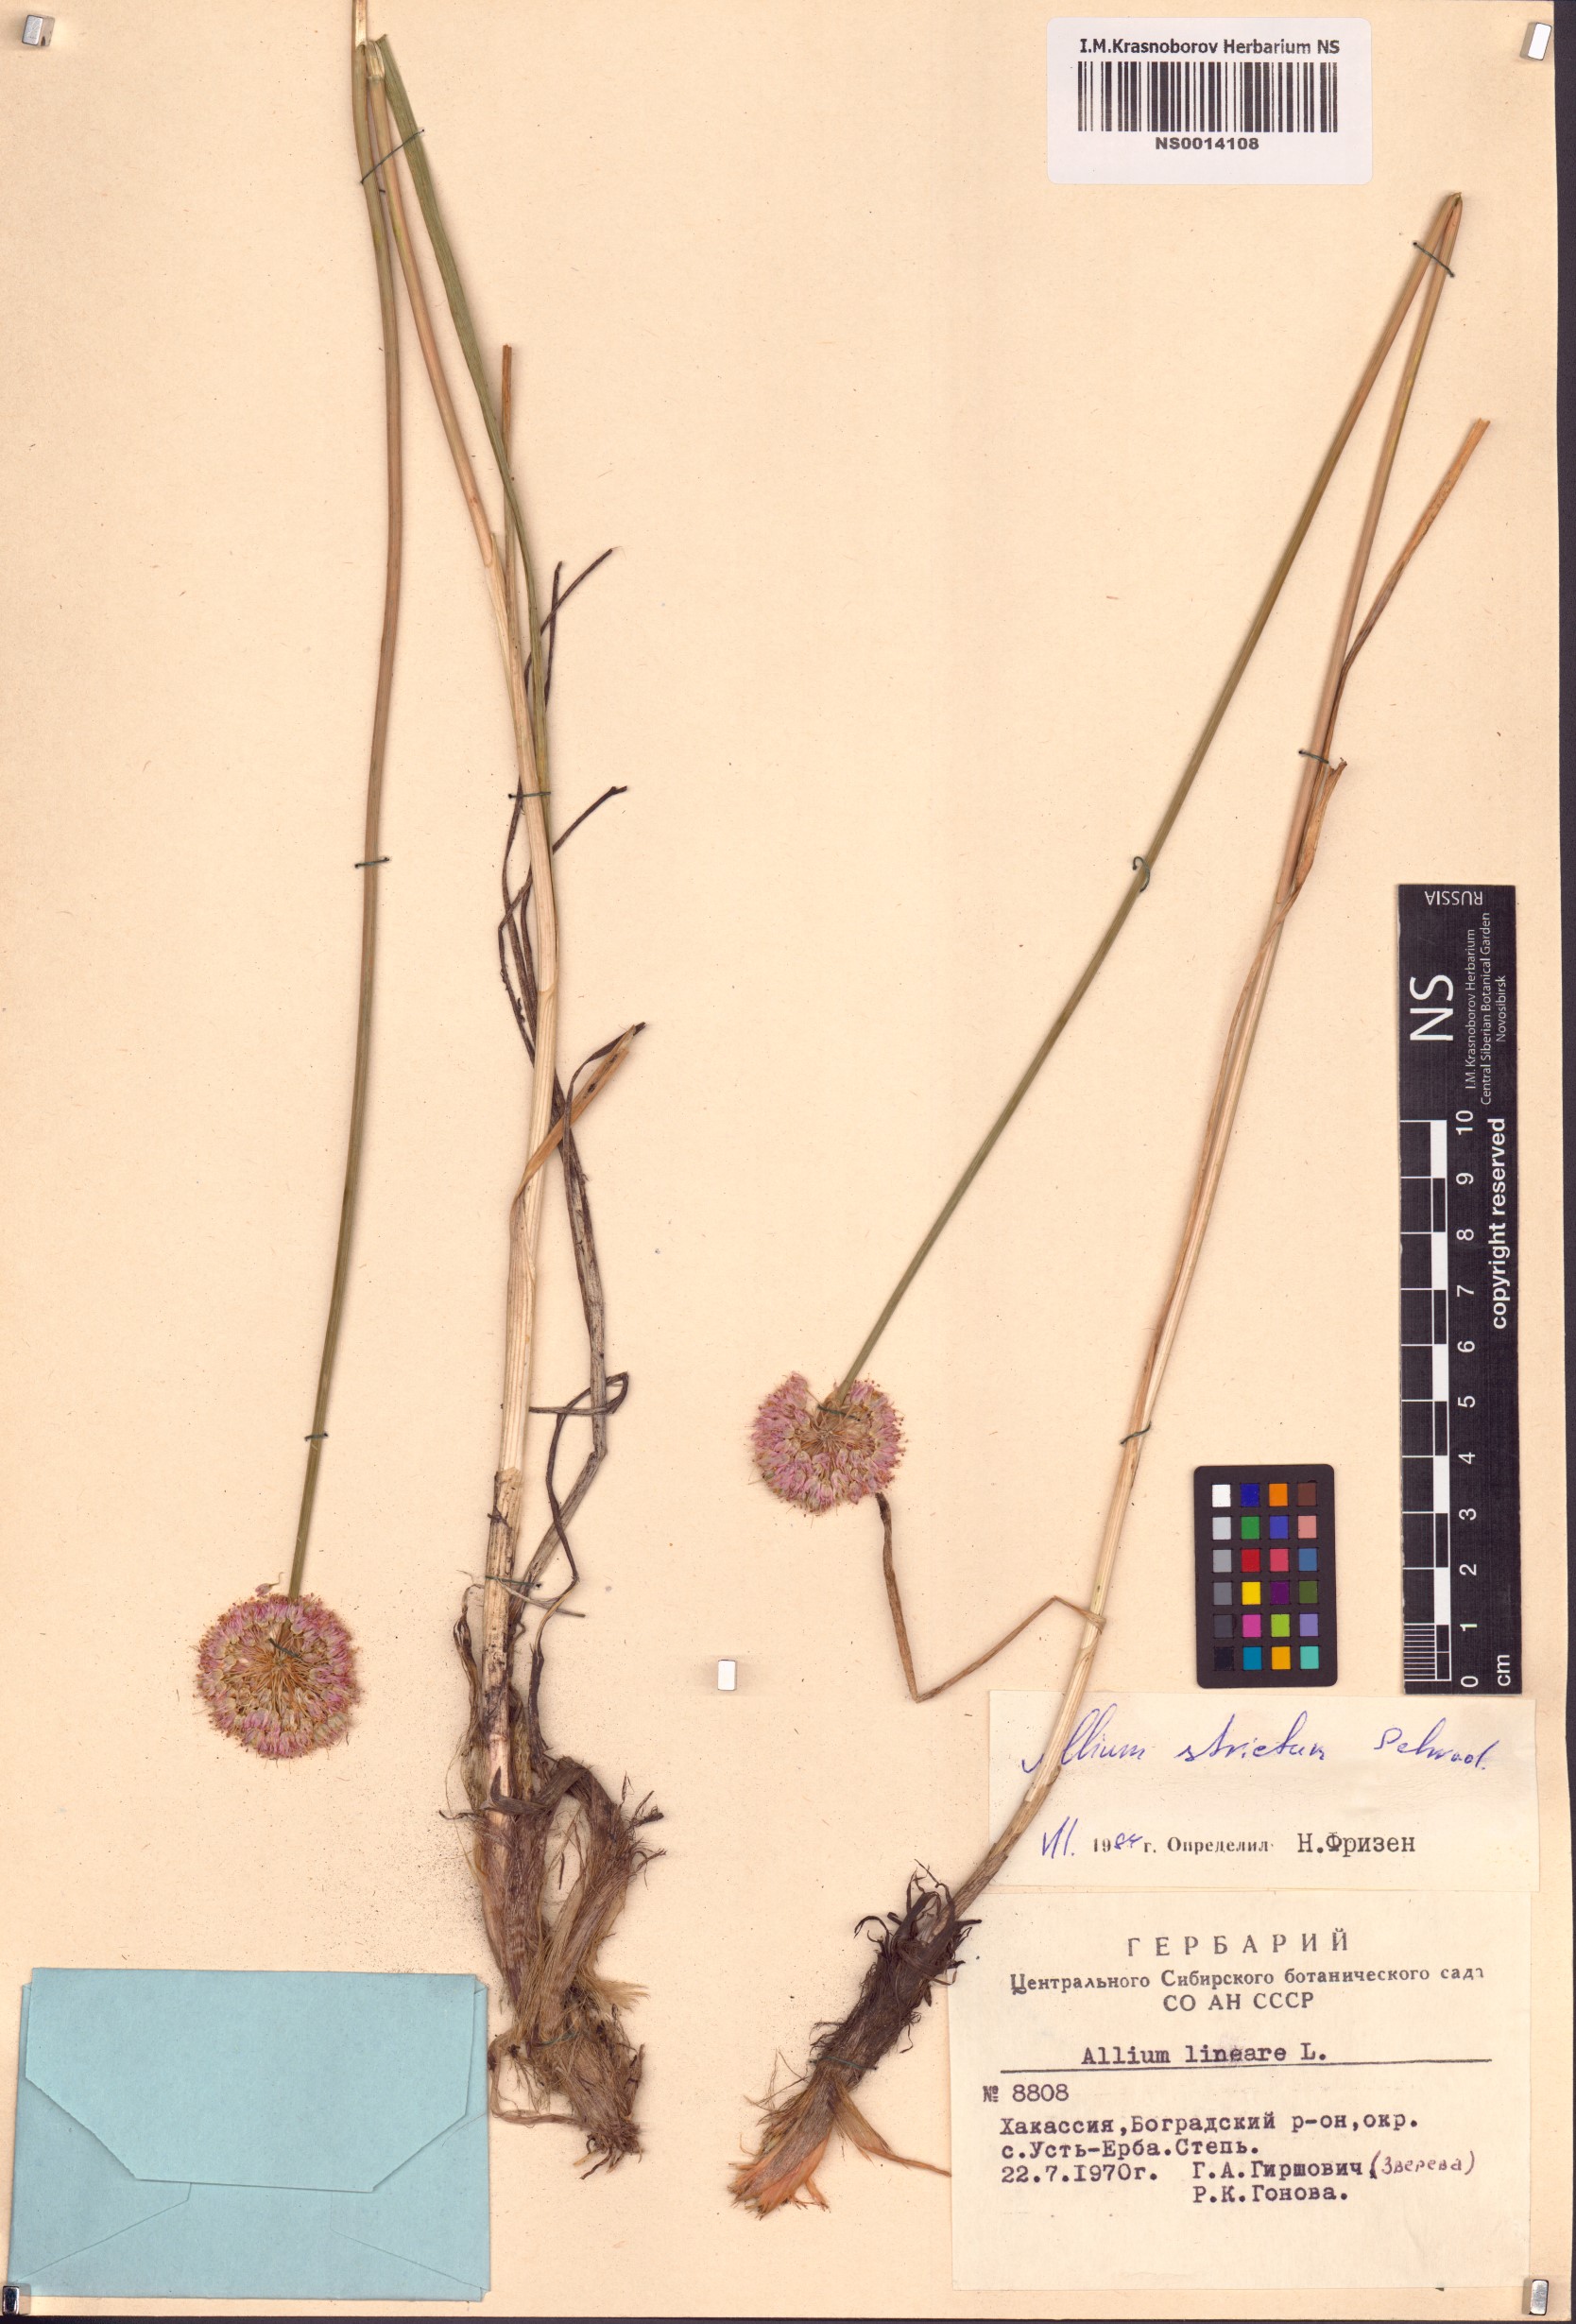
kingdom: Plantae
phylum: Tracheophyta
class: Liliopsida
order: Asparagales
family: Amaryllidaceae
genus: Allium
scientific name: Allium strictum
